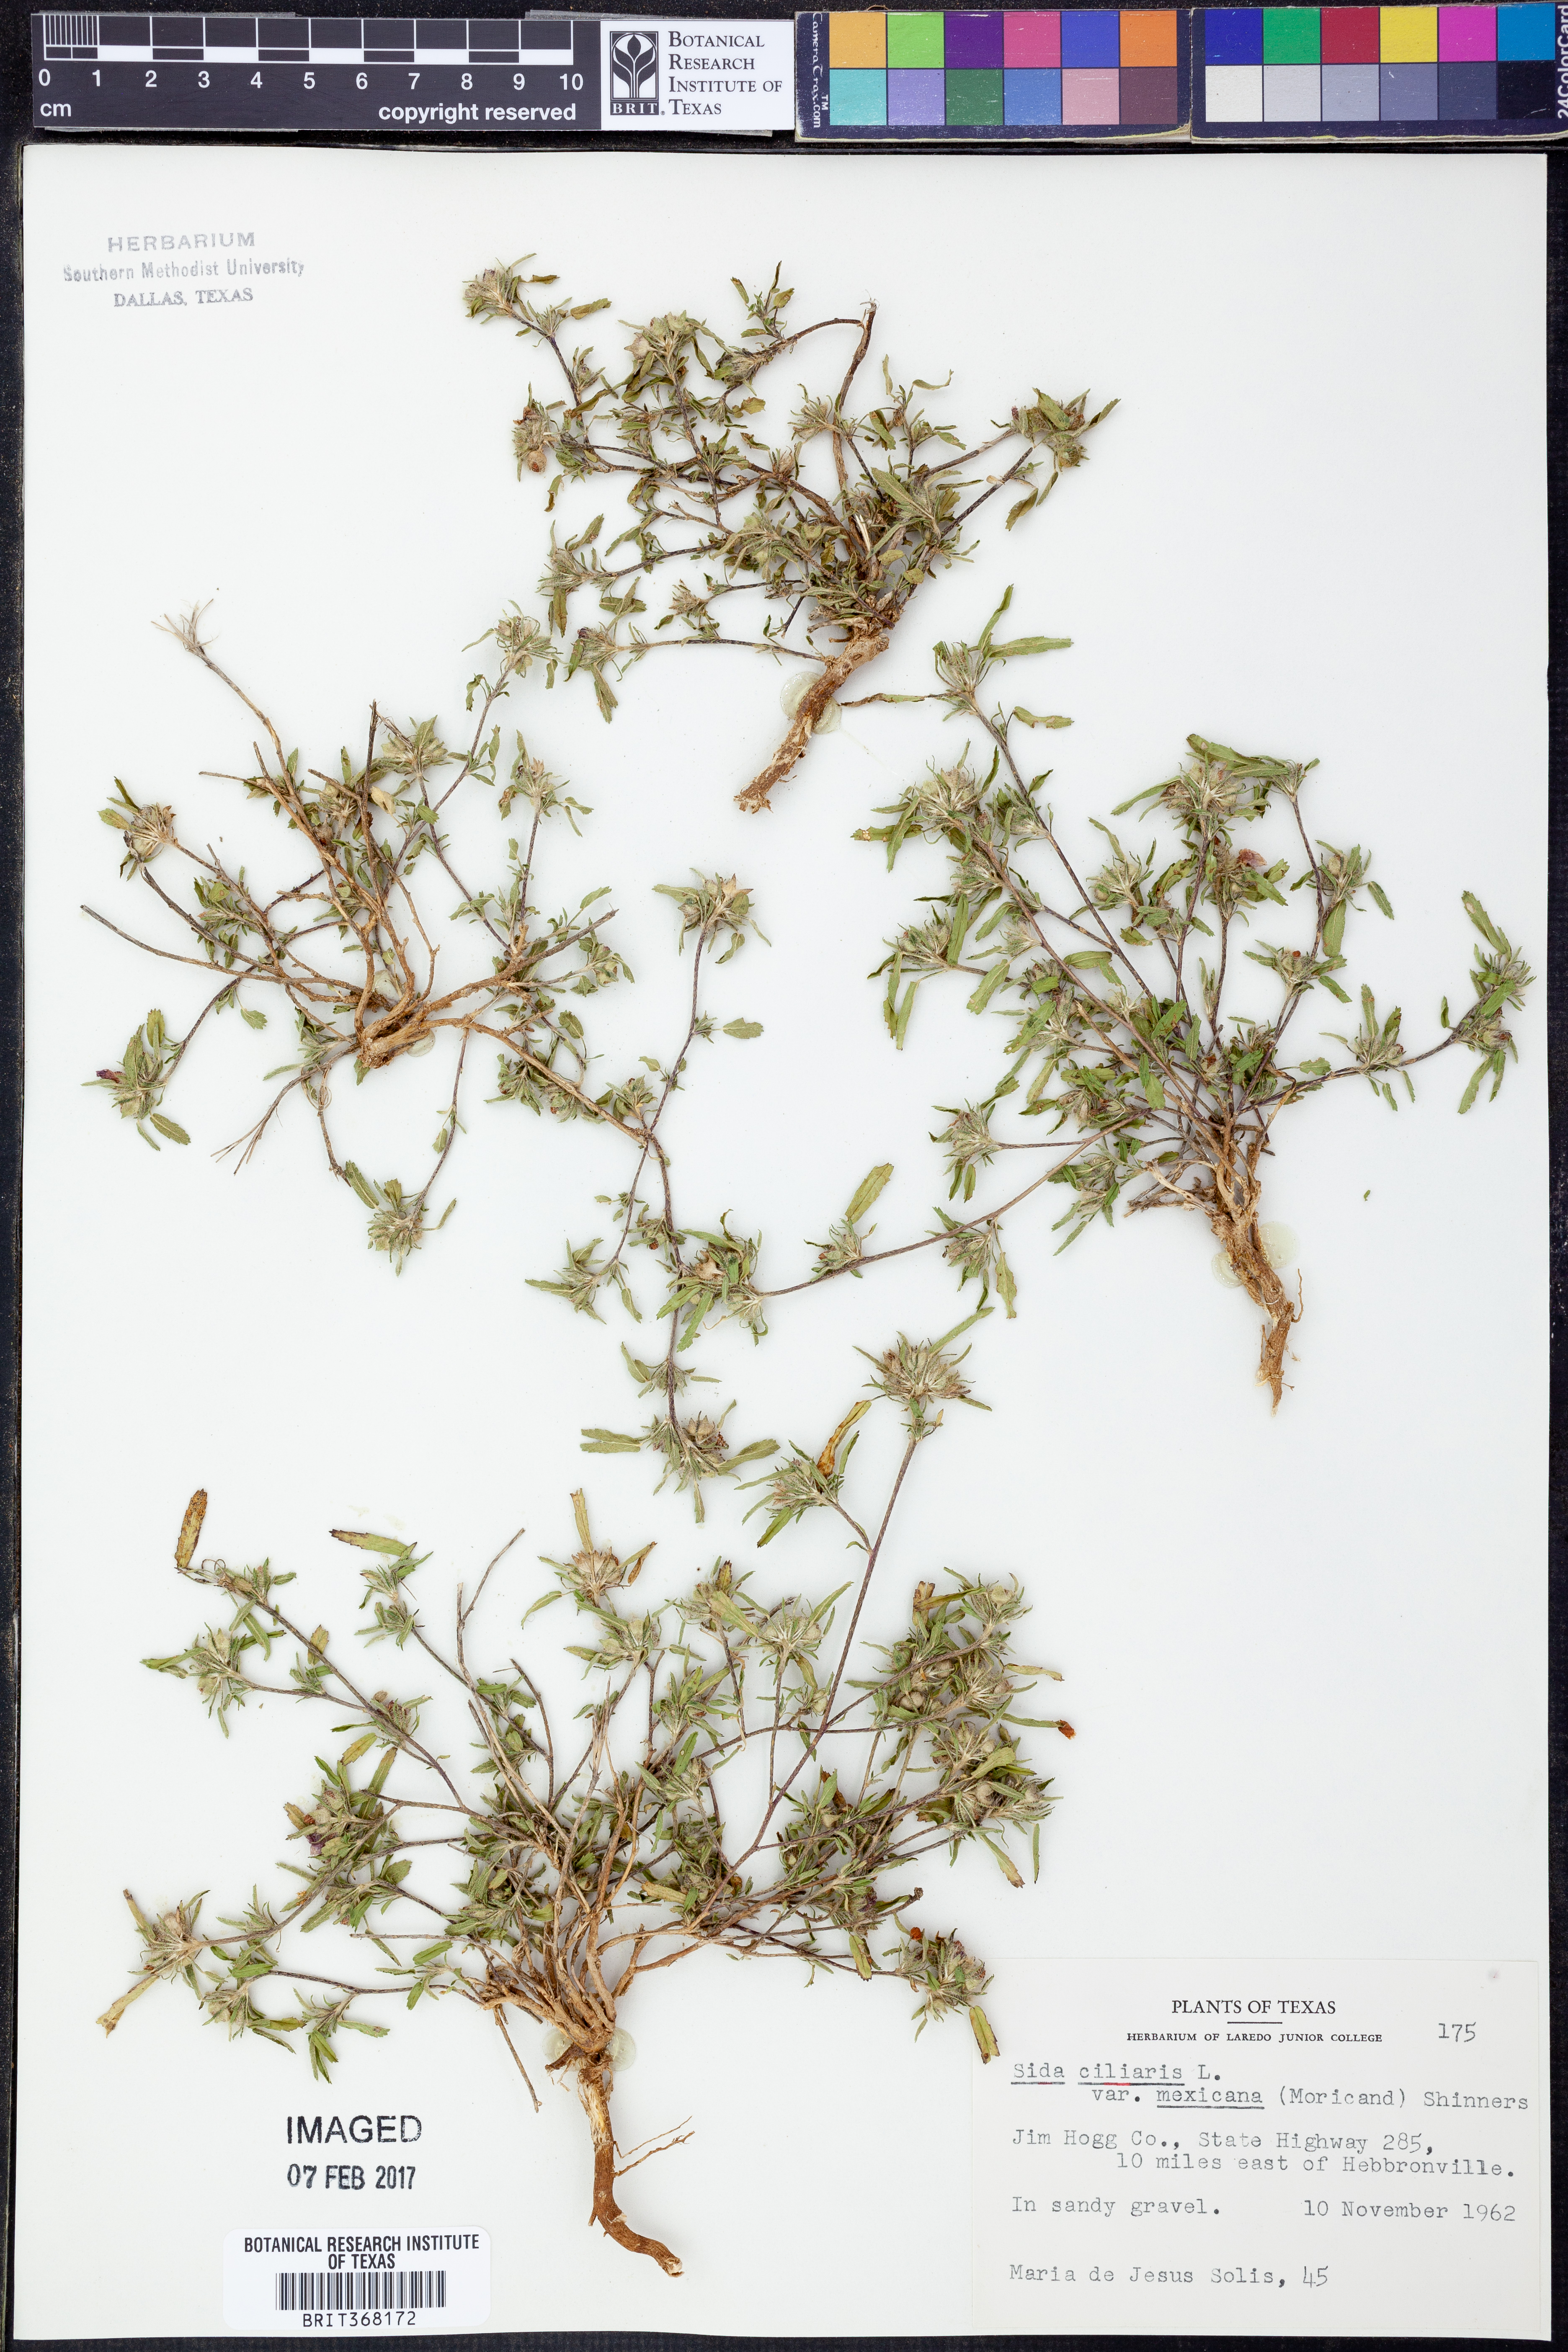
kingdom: Plantae
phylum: Tracheophyta
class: Magnoliopsida
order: Malvales
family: Malvaceae
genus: Sida
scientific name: Sida ciliaris
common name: Bracted fanpetals
